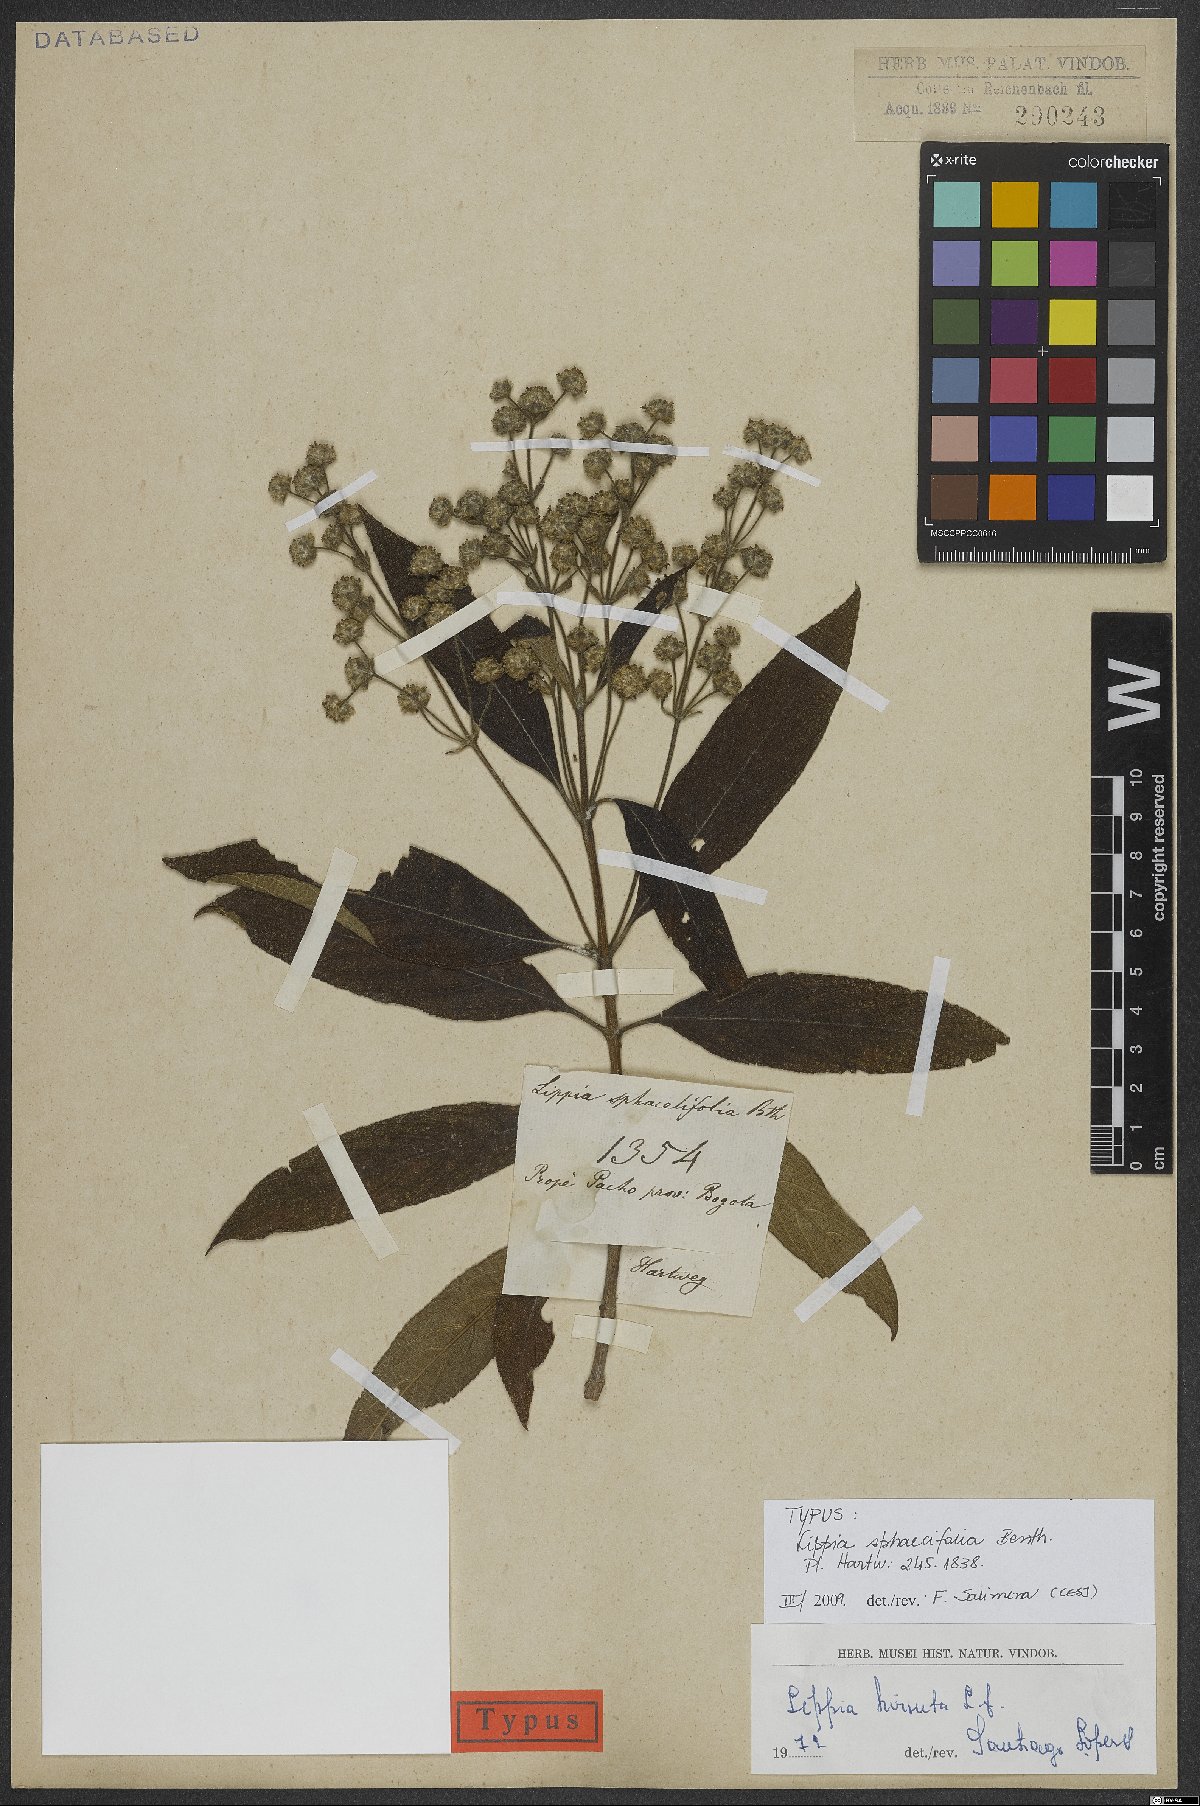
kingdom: Plantae
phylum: Tracheophyta
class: Magnoliopsida
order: Lamiales
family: Verbenaceae
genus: Lippia
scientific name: Lippia hirsuta
